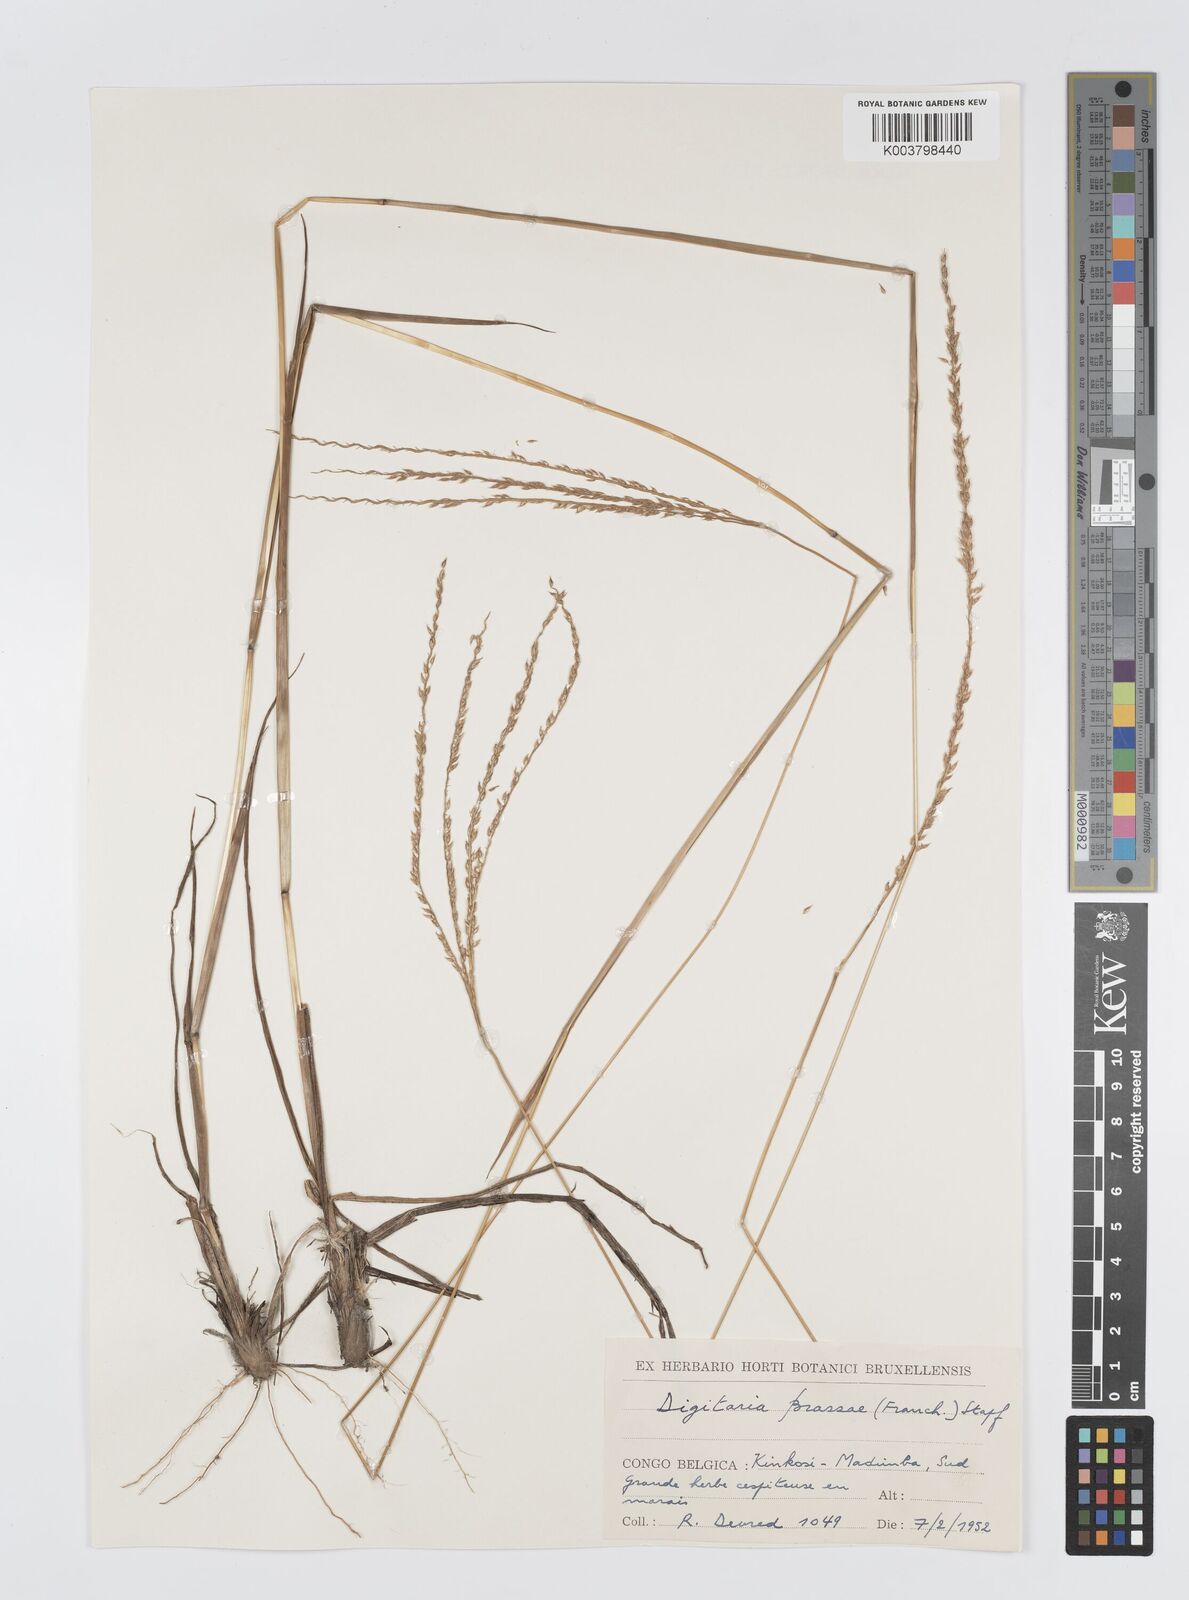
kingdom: Plantae
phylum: Tracheophyta
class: Liliopsida
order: Poales
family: Poaceae
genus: Digitaria
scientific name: Digitaria brazzae
